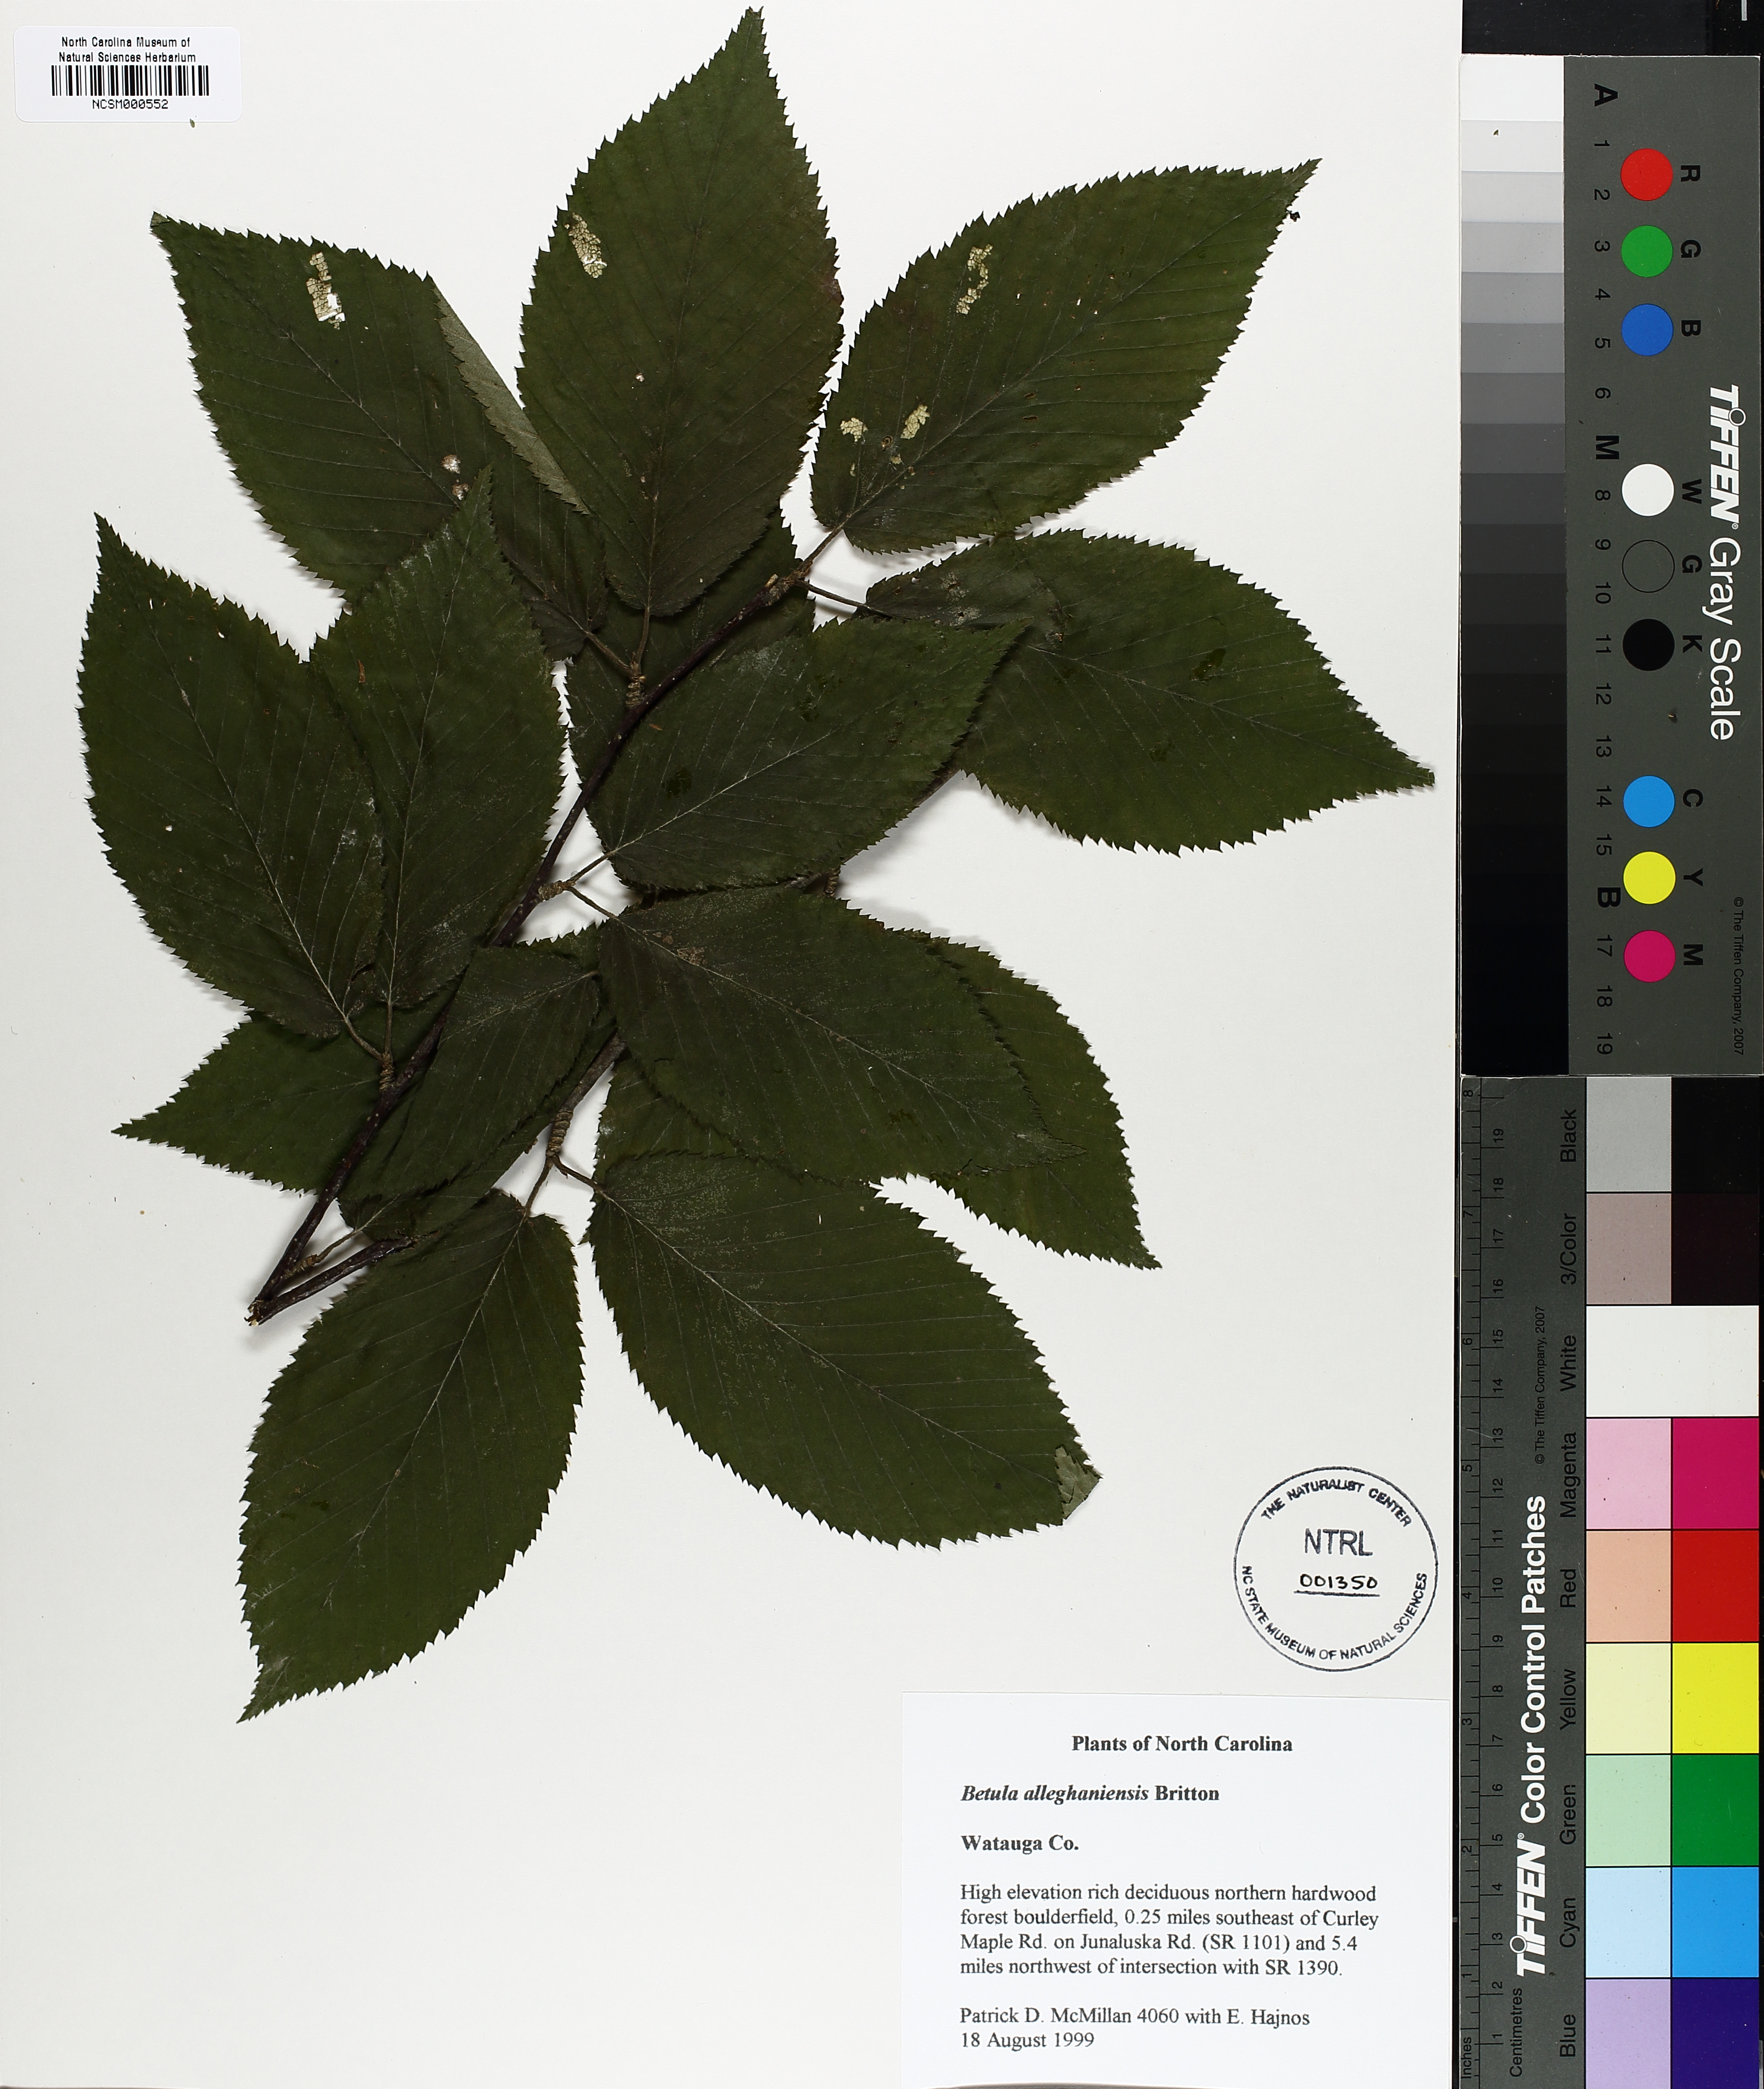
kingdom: Plantae
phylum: Tracheophyta
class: Magnoliopsida
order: Fagales
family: Betulaceae
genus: Betula
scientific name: Betula alleghaniensis
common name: Yellow birch
